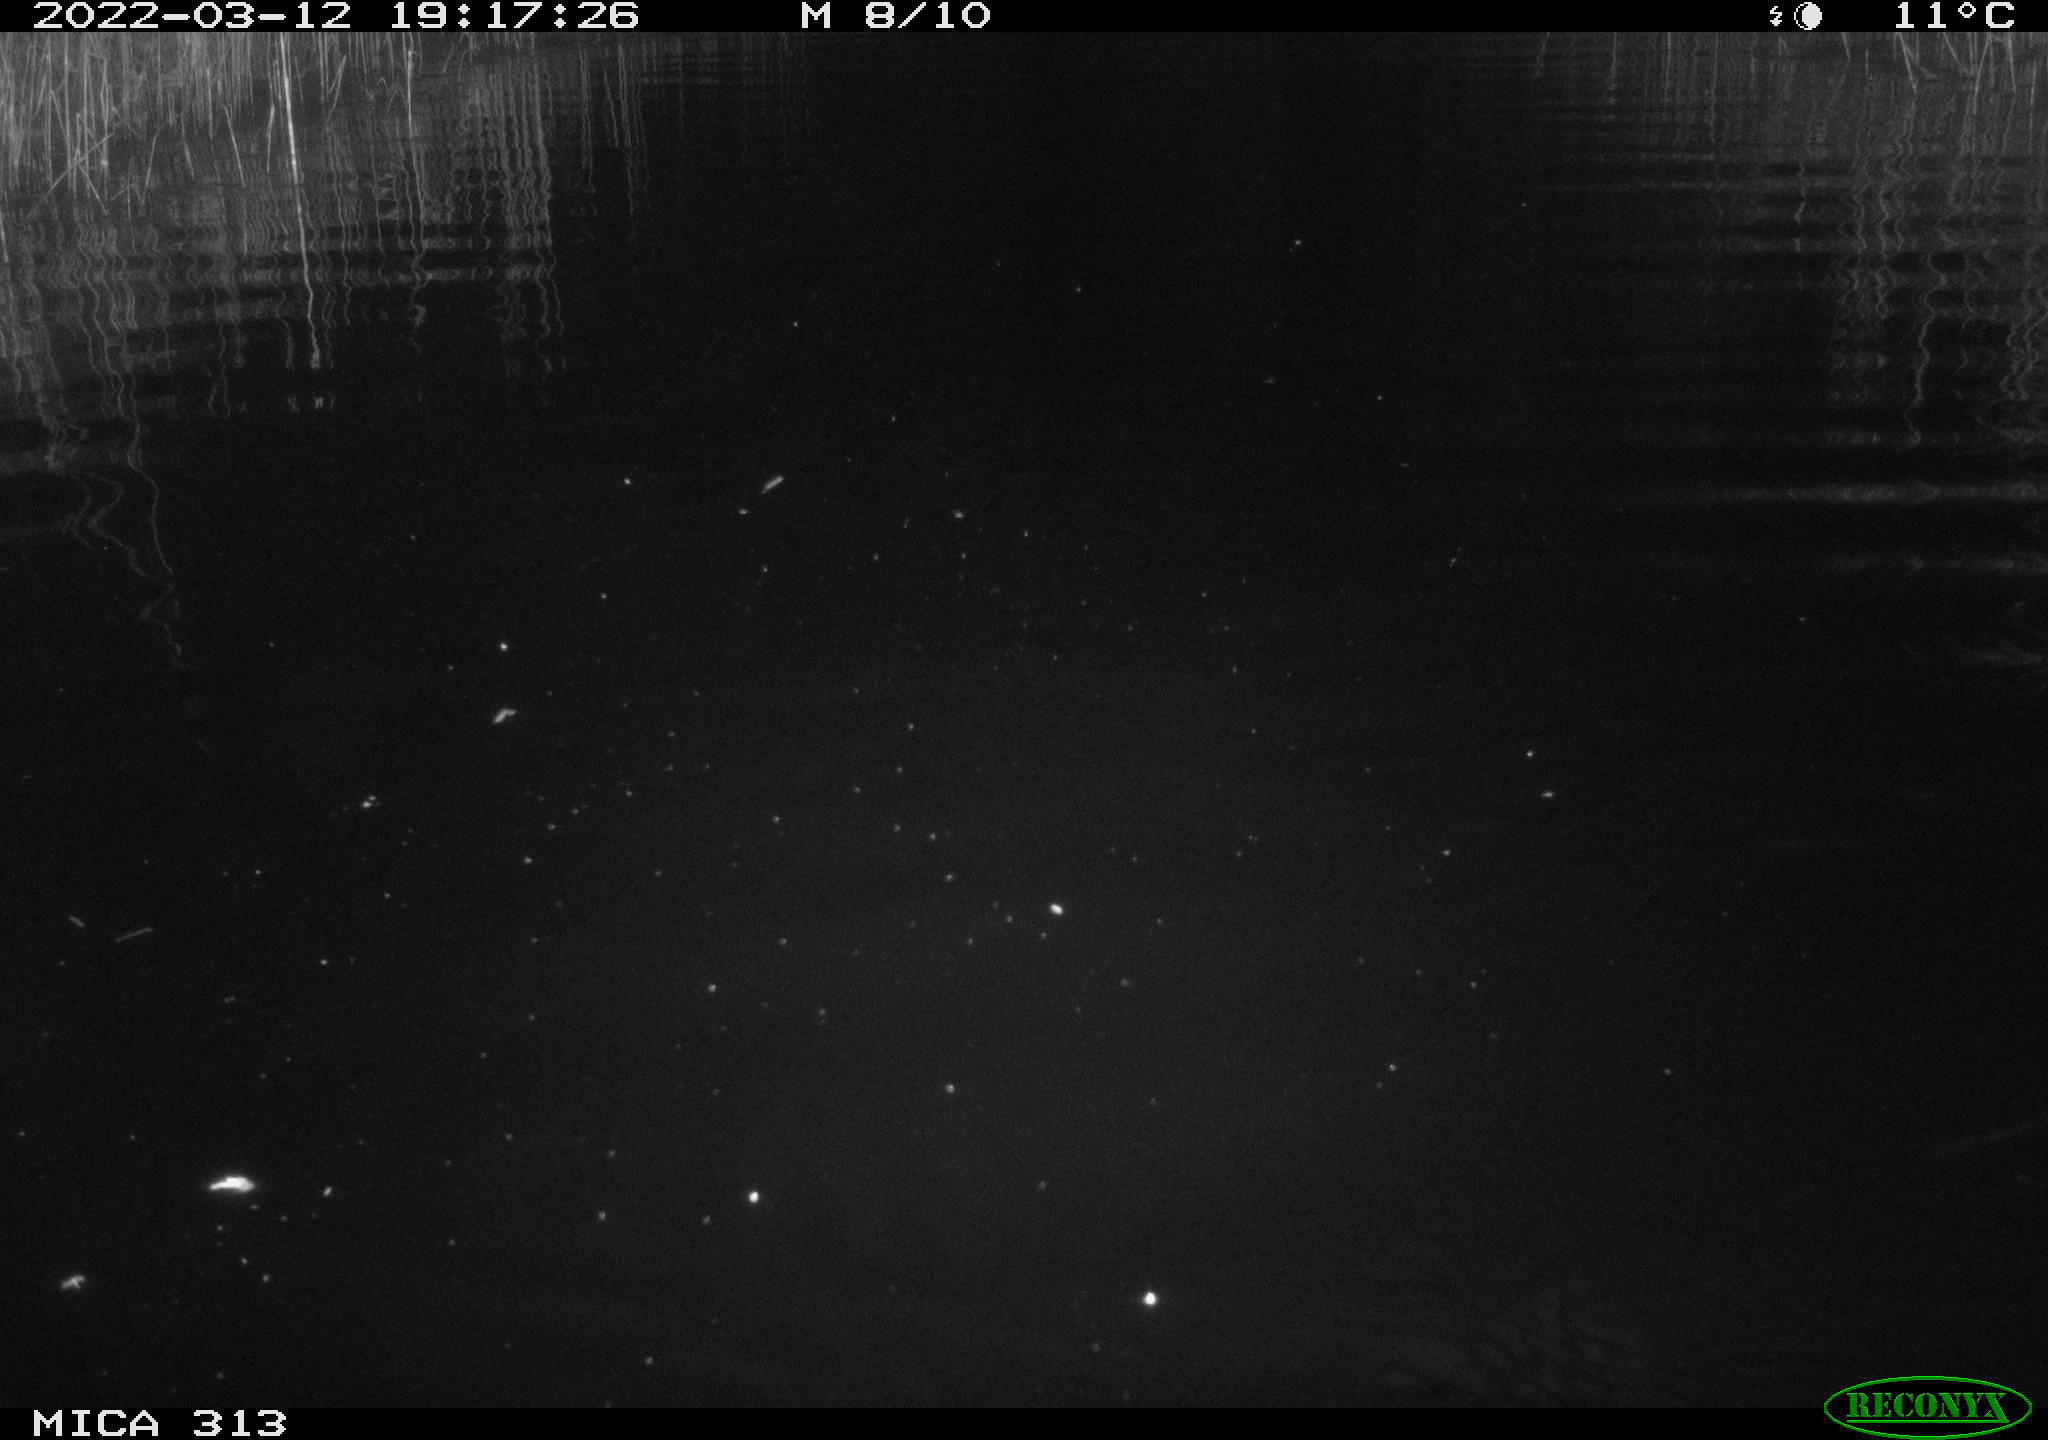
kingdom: Animalia
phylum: Chordata
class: Aves
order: Gruiformes
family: Rallidae
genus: Gallinula
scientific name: Gallinula chloropus
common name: Common moorhen
